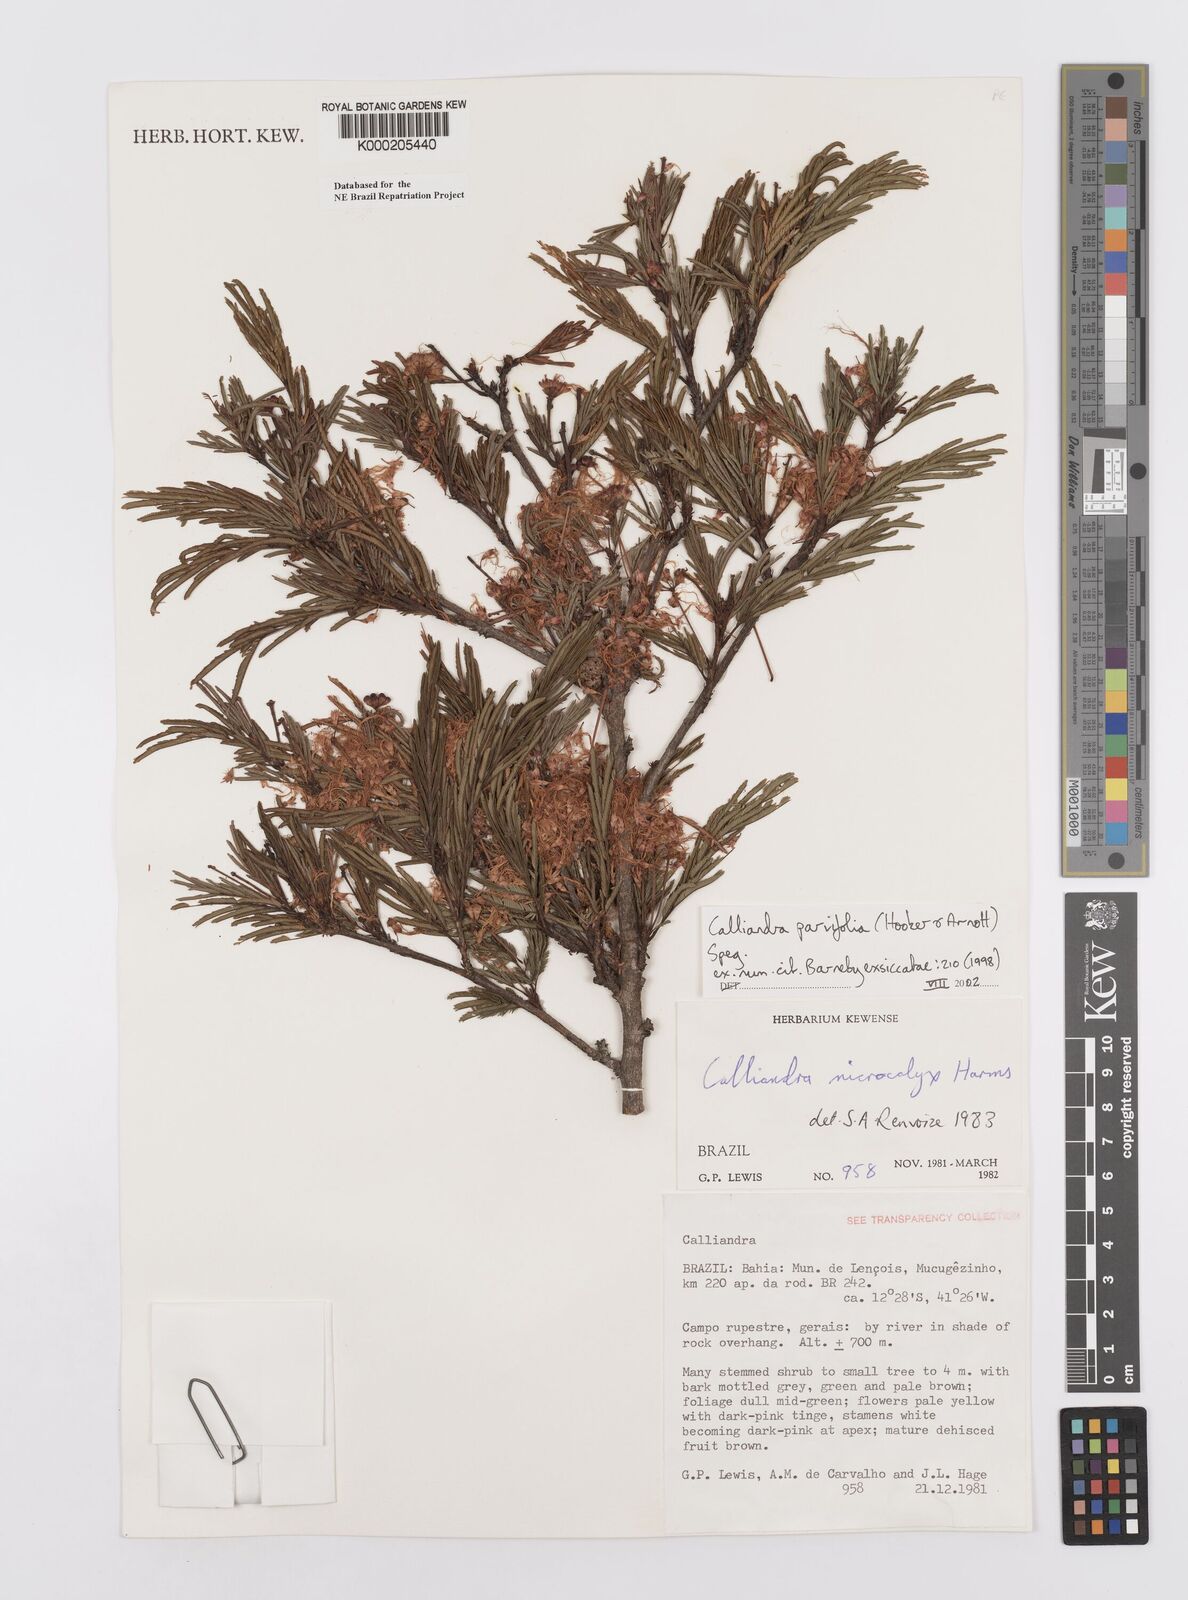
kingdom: Plantae
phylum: Tracheophyta
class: Magnoliopsida
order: Fabales
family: Fabaceae
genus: Calliandra
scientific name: Calliandra parvifolia
